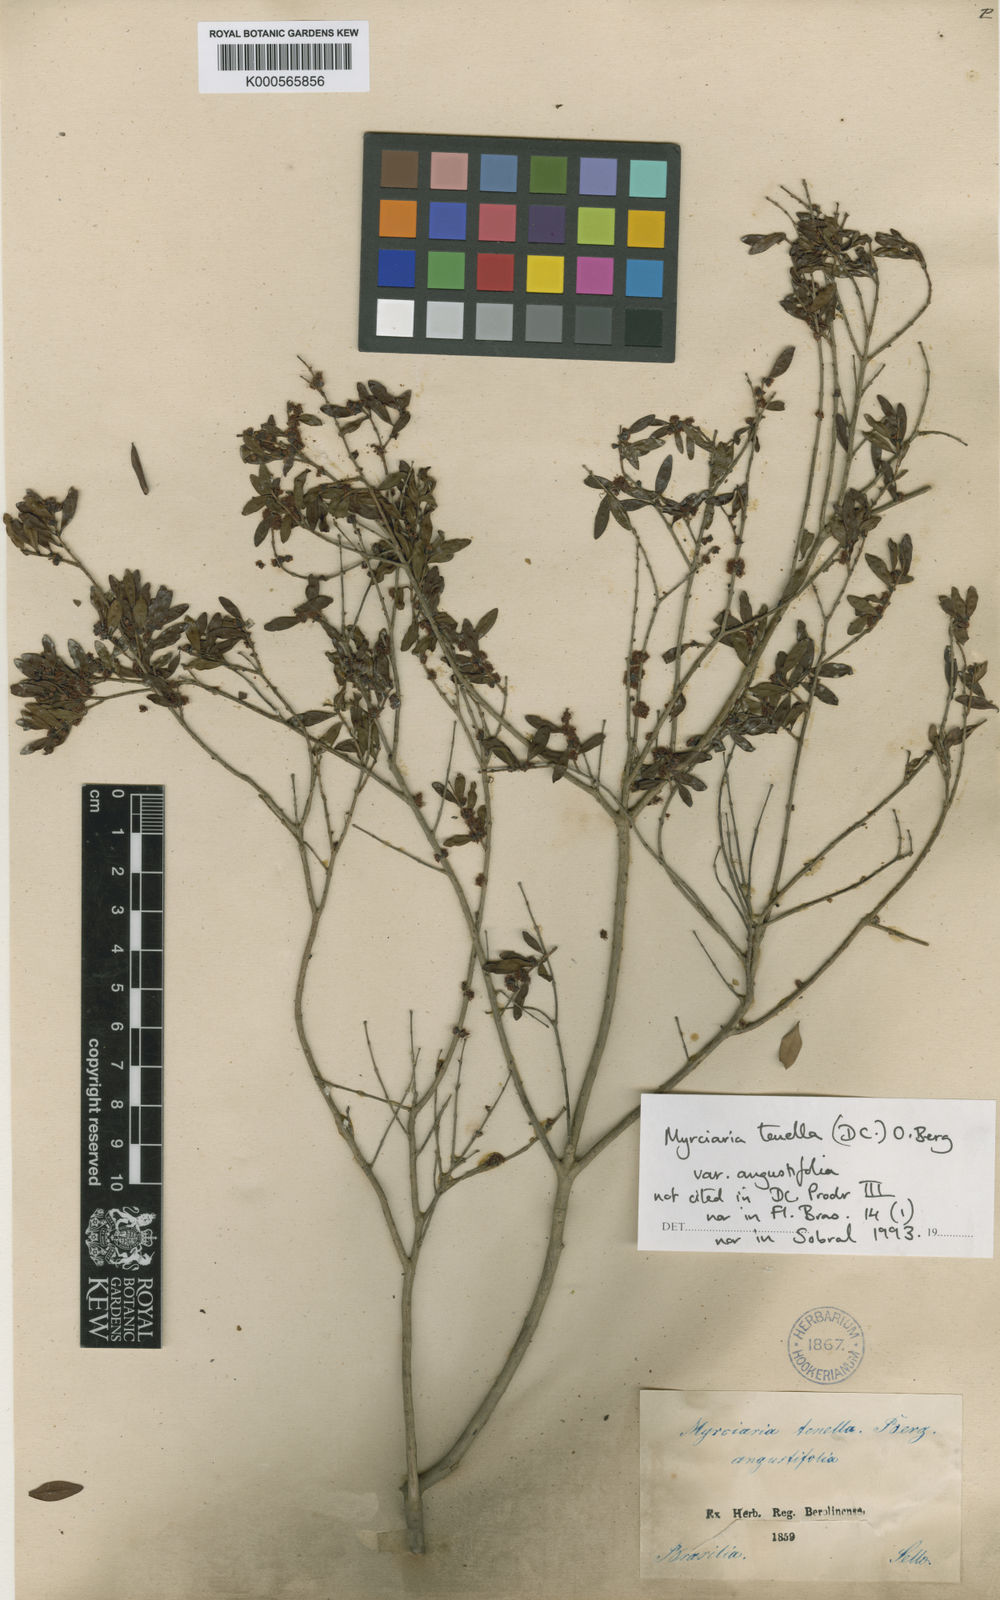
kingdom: Plantae
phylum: Tracheophyta
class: Magnoliopsida
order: Myrtales
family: Myrtaceae
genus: Myrciaria
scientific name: Myrciaria tenella
